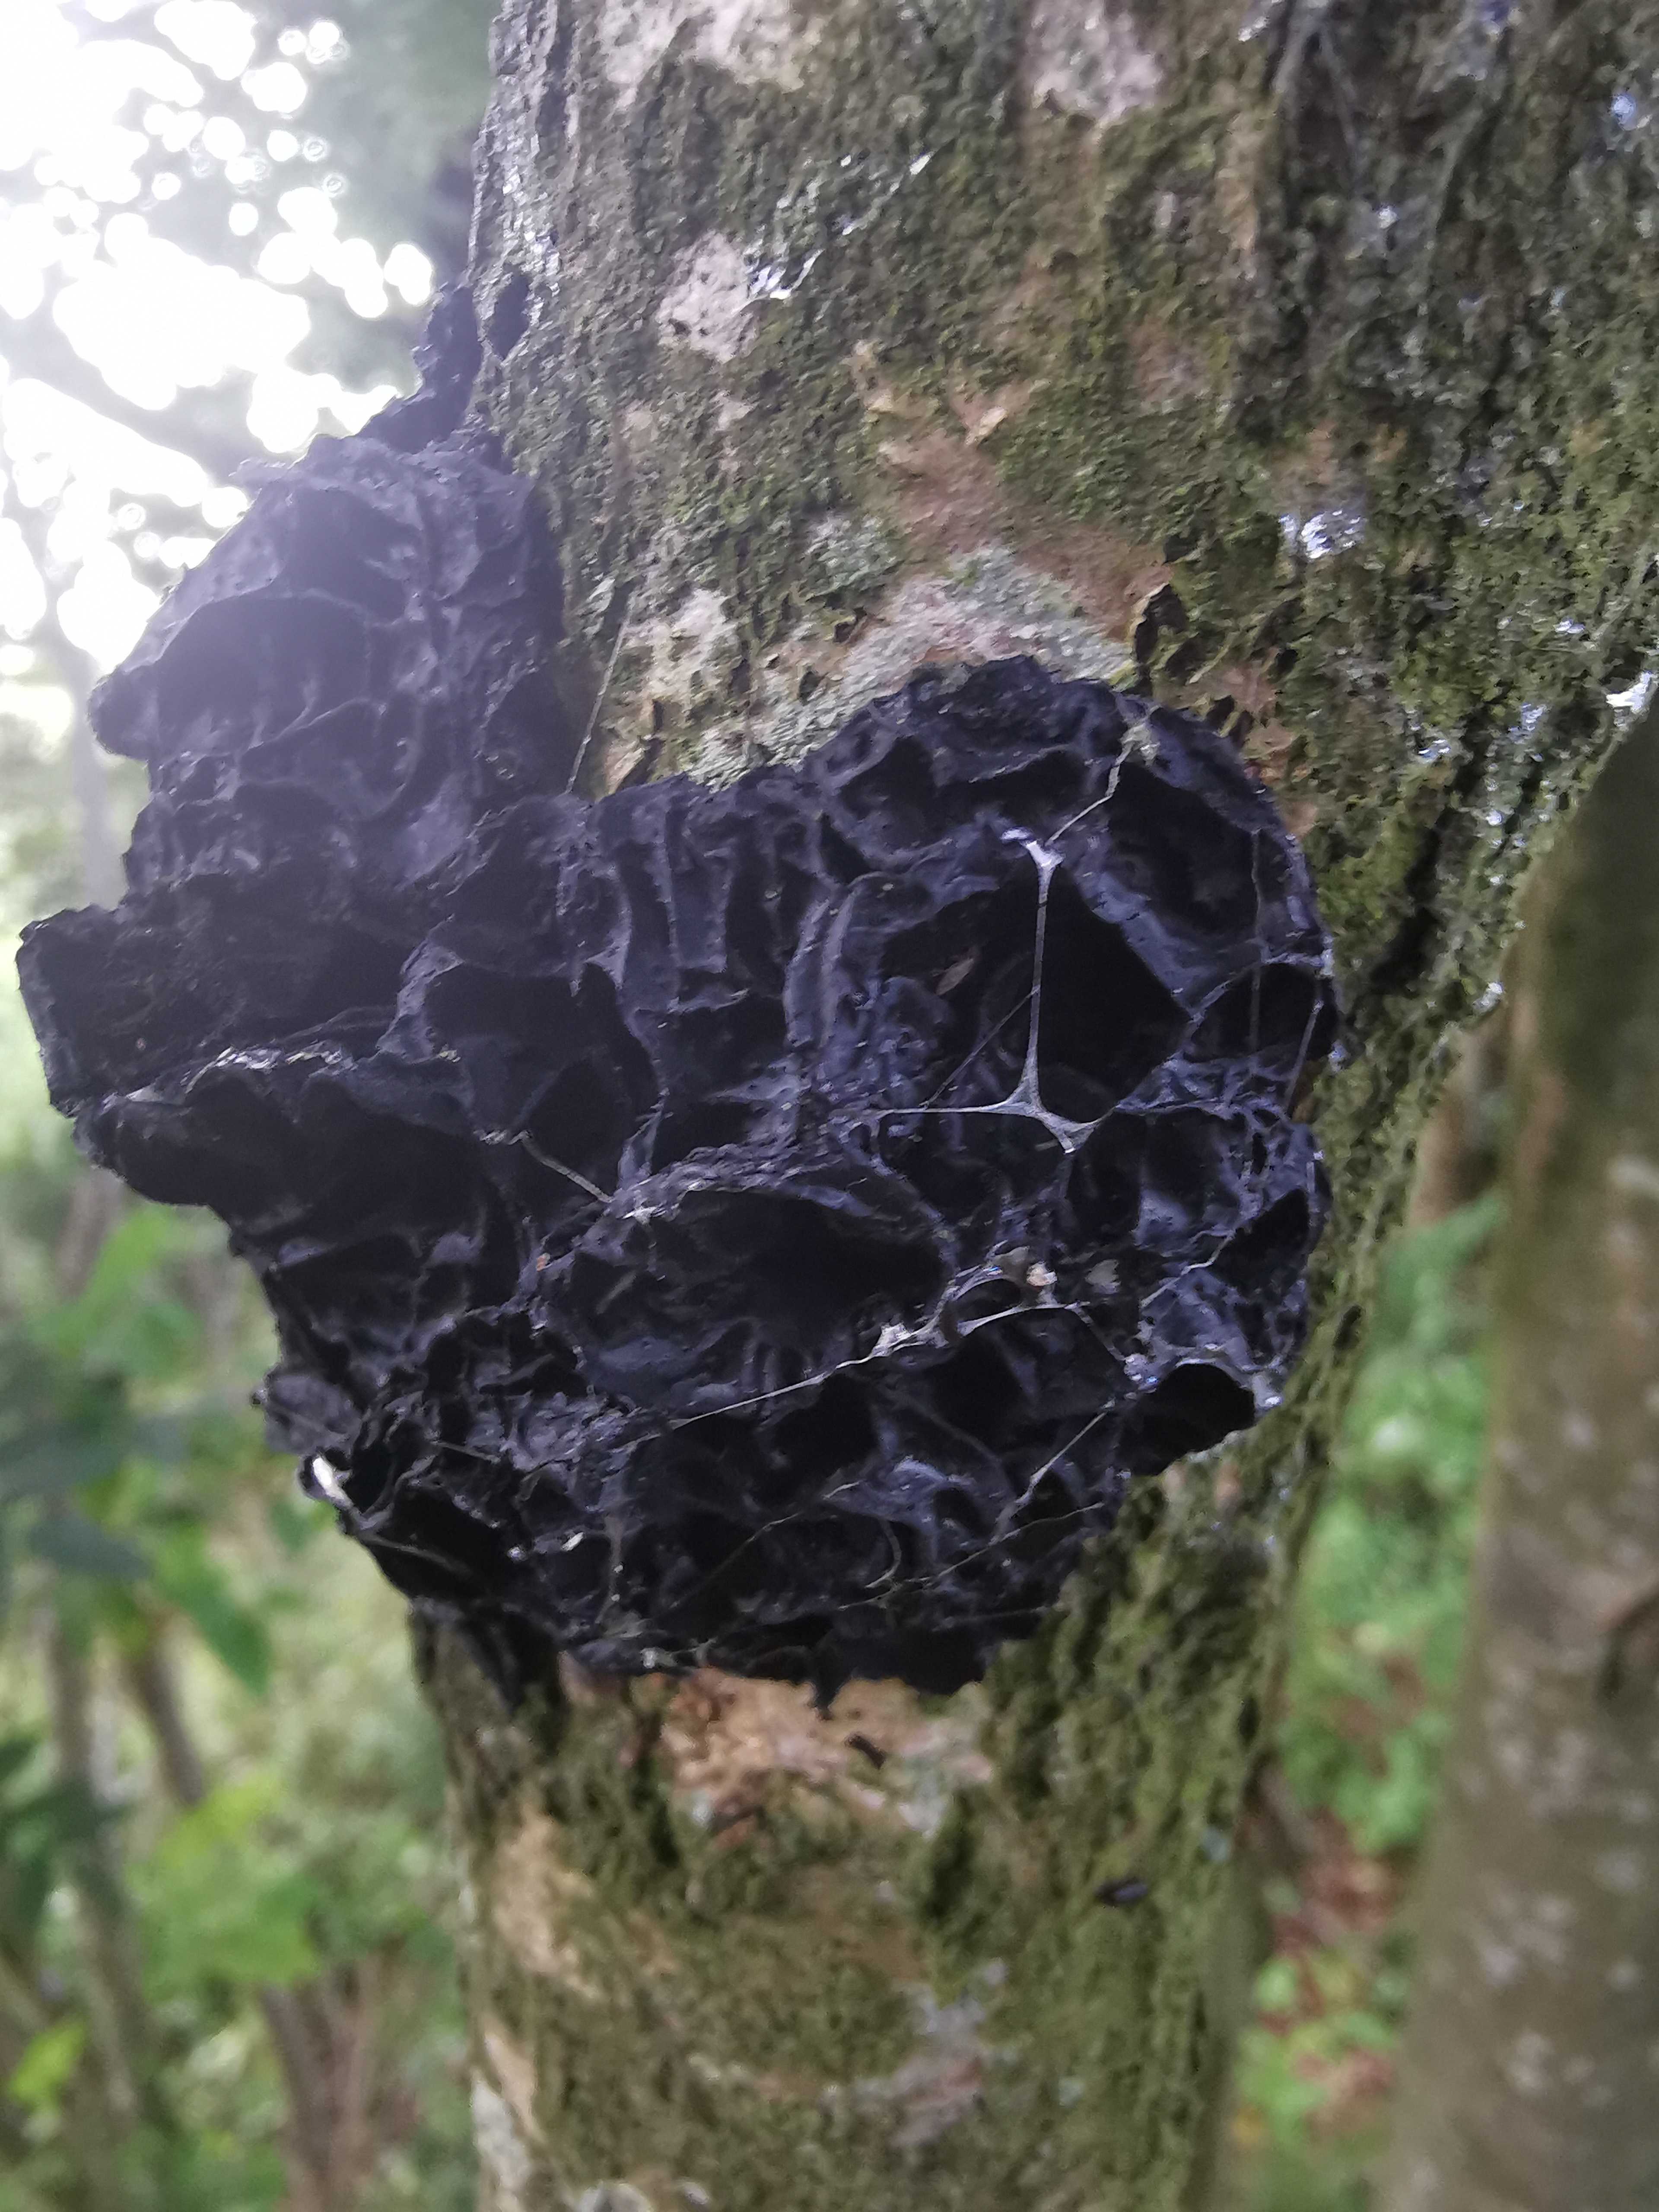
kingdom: Fungi
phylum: Basidiomycota
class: Agaricomycetes
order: Auriculariales
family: Auriculariaceae
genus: Exidia
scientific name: Exidia nigricans
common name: almindelig bævretop
